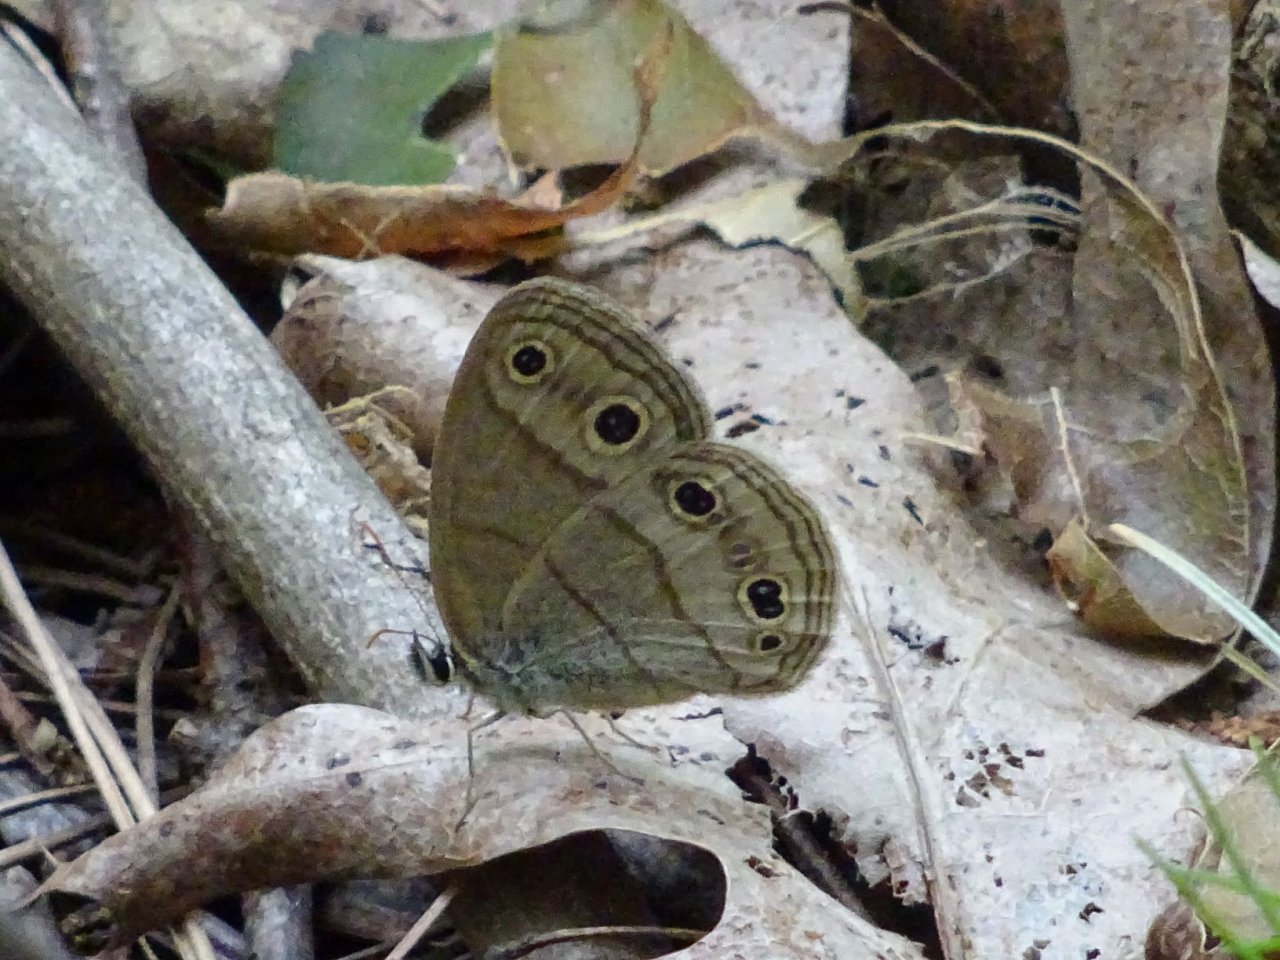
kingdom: Animalia
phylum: Arthropoda
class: Insecta
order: Lepidoptera
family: Nymphalidae
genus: Euptychia
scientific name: Euptychia cymela
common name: Little Wood Satyr
